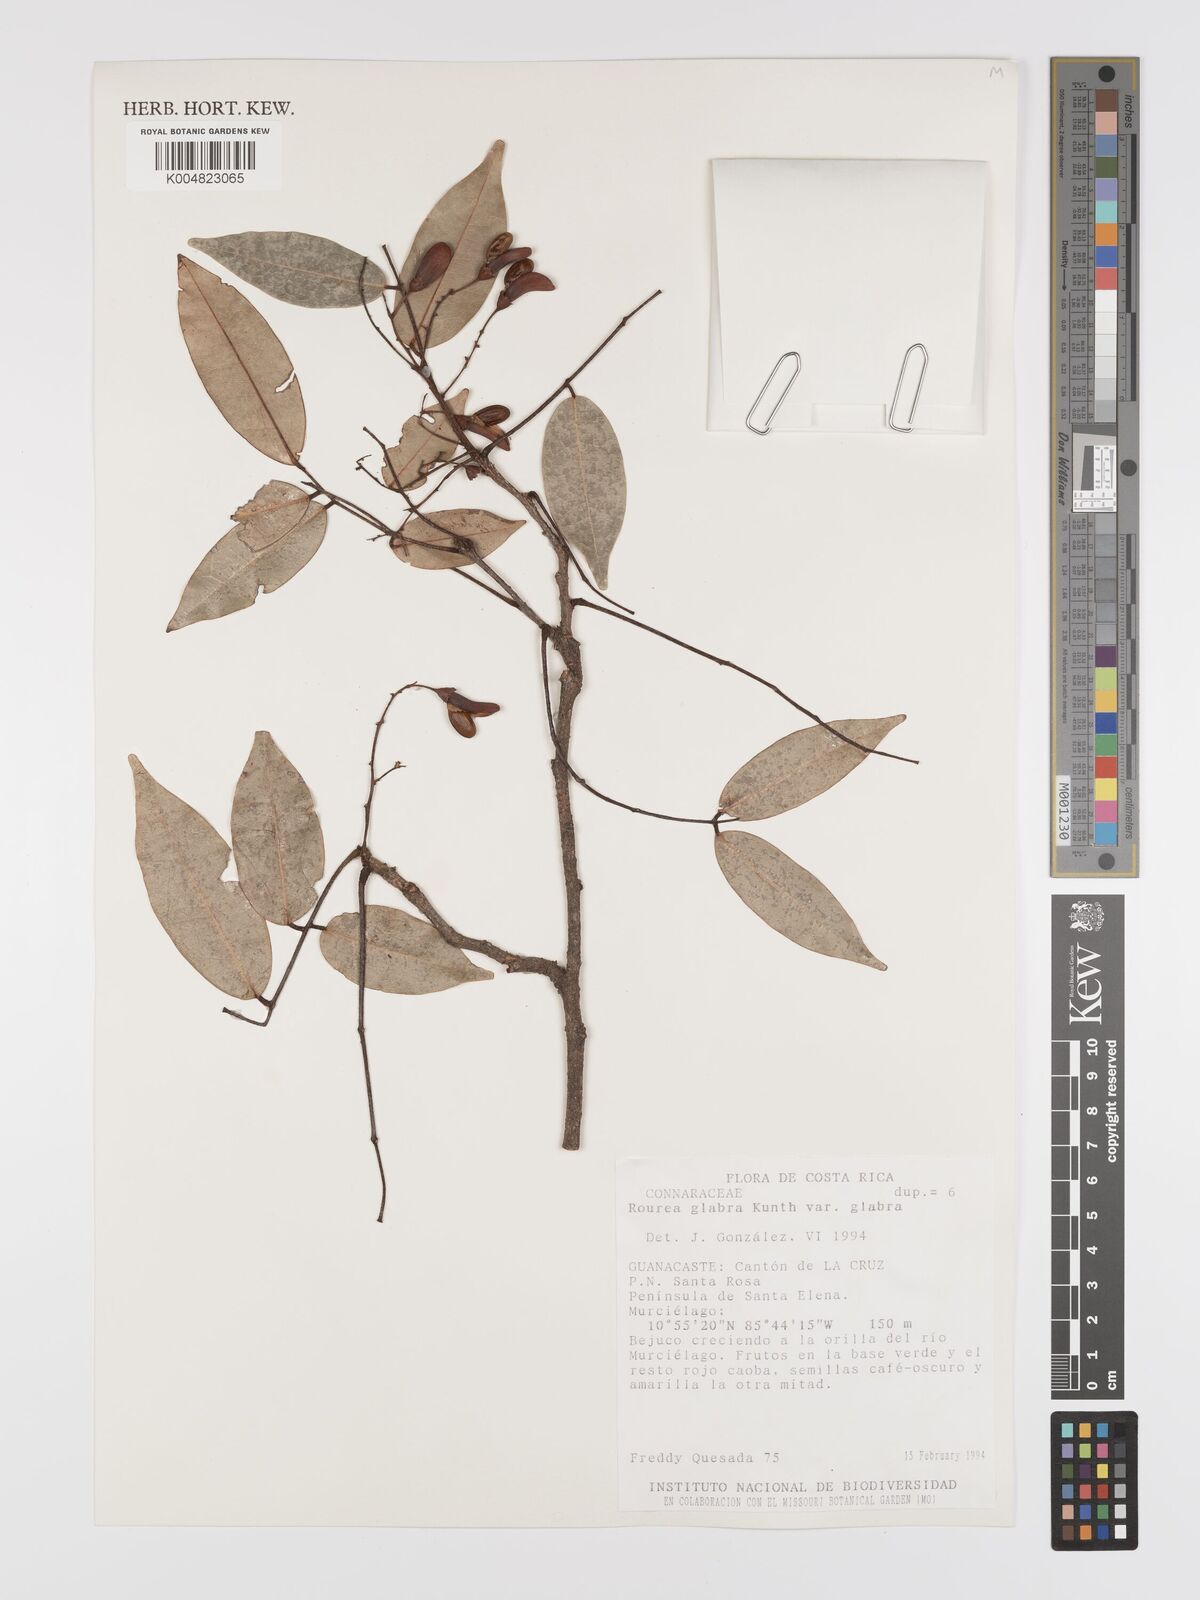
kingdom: Plantae
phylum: Tracheophyta
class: Magnoliopsida
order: Oxalidales
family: Connaraceae
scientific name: Connaraceae
